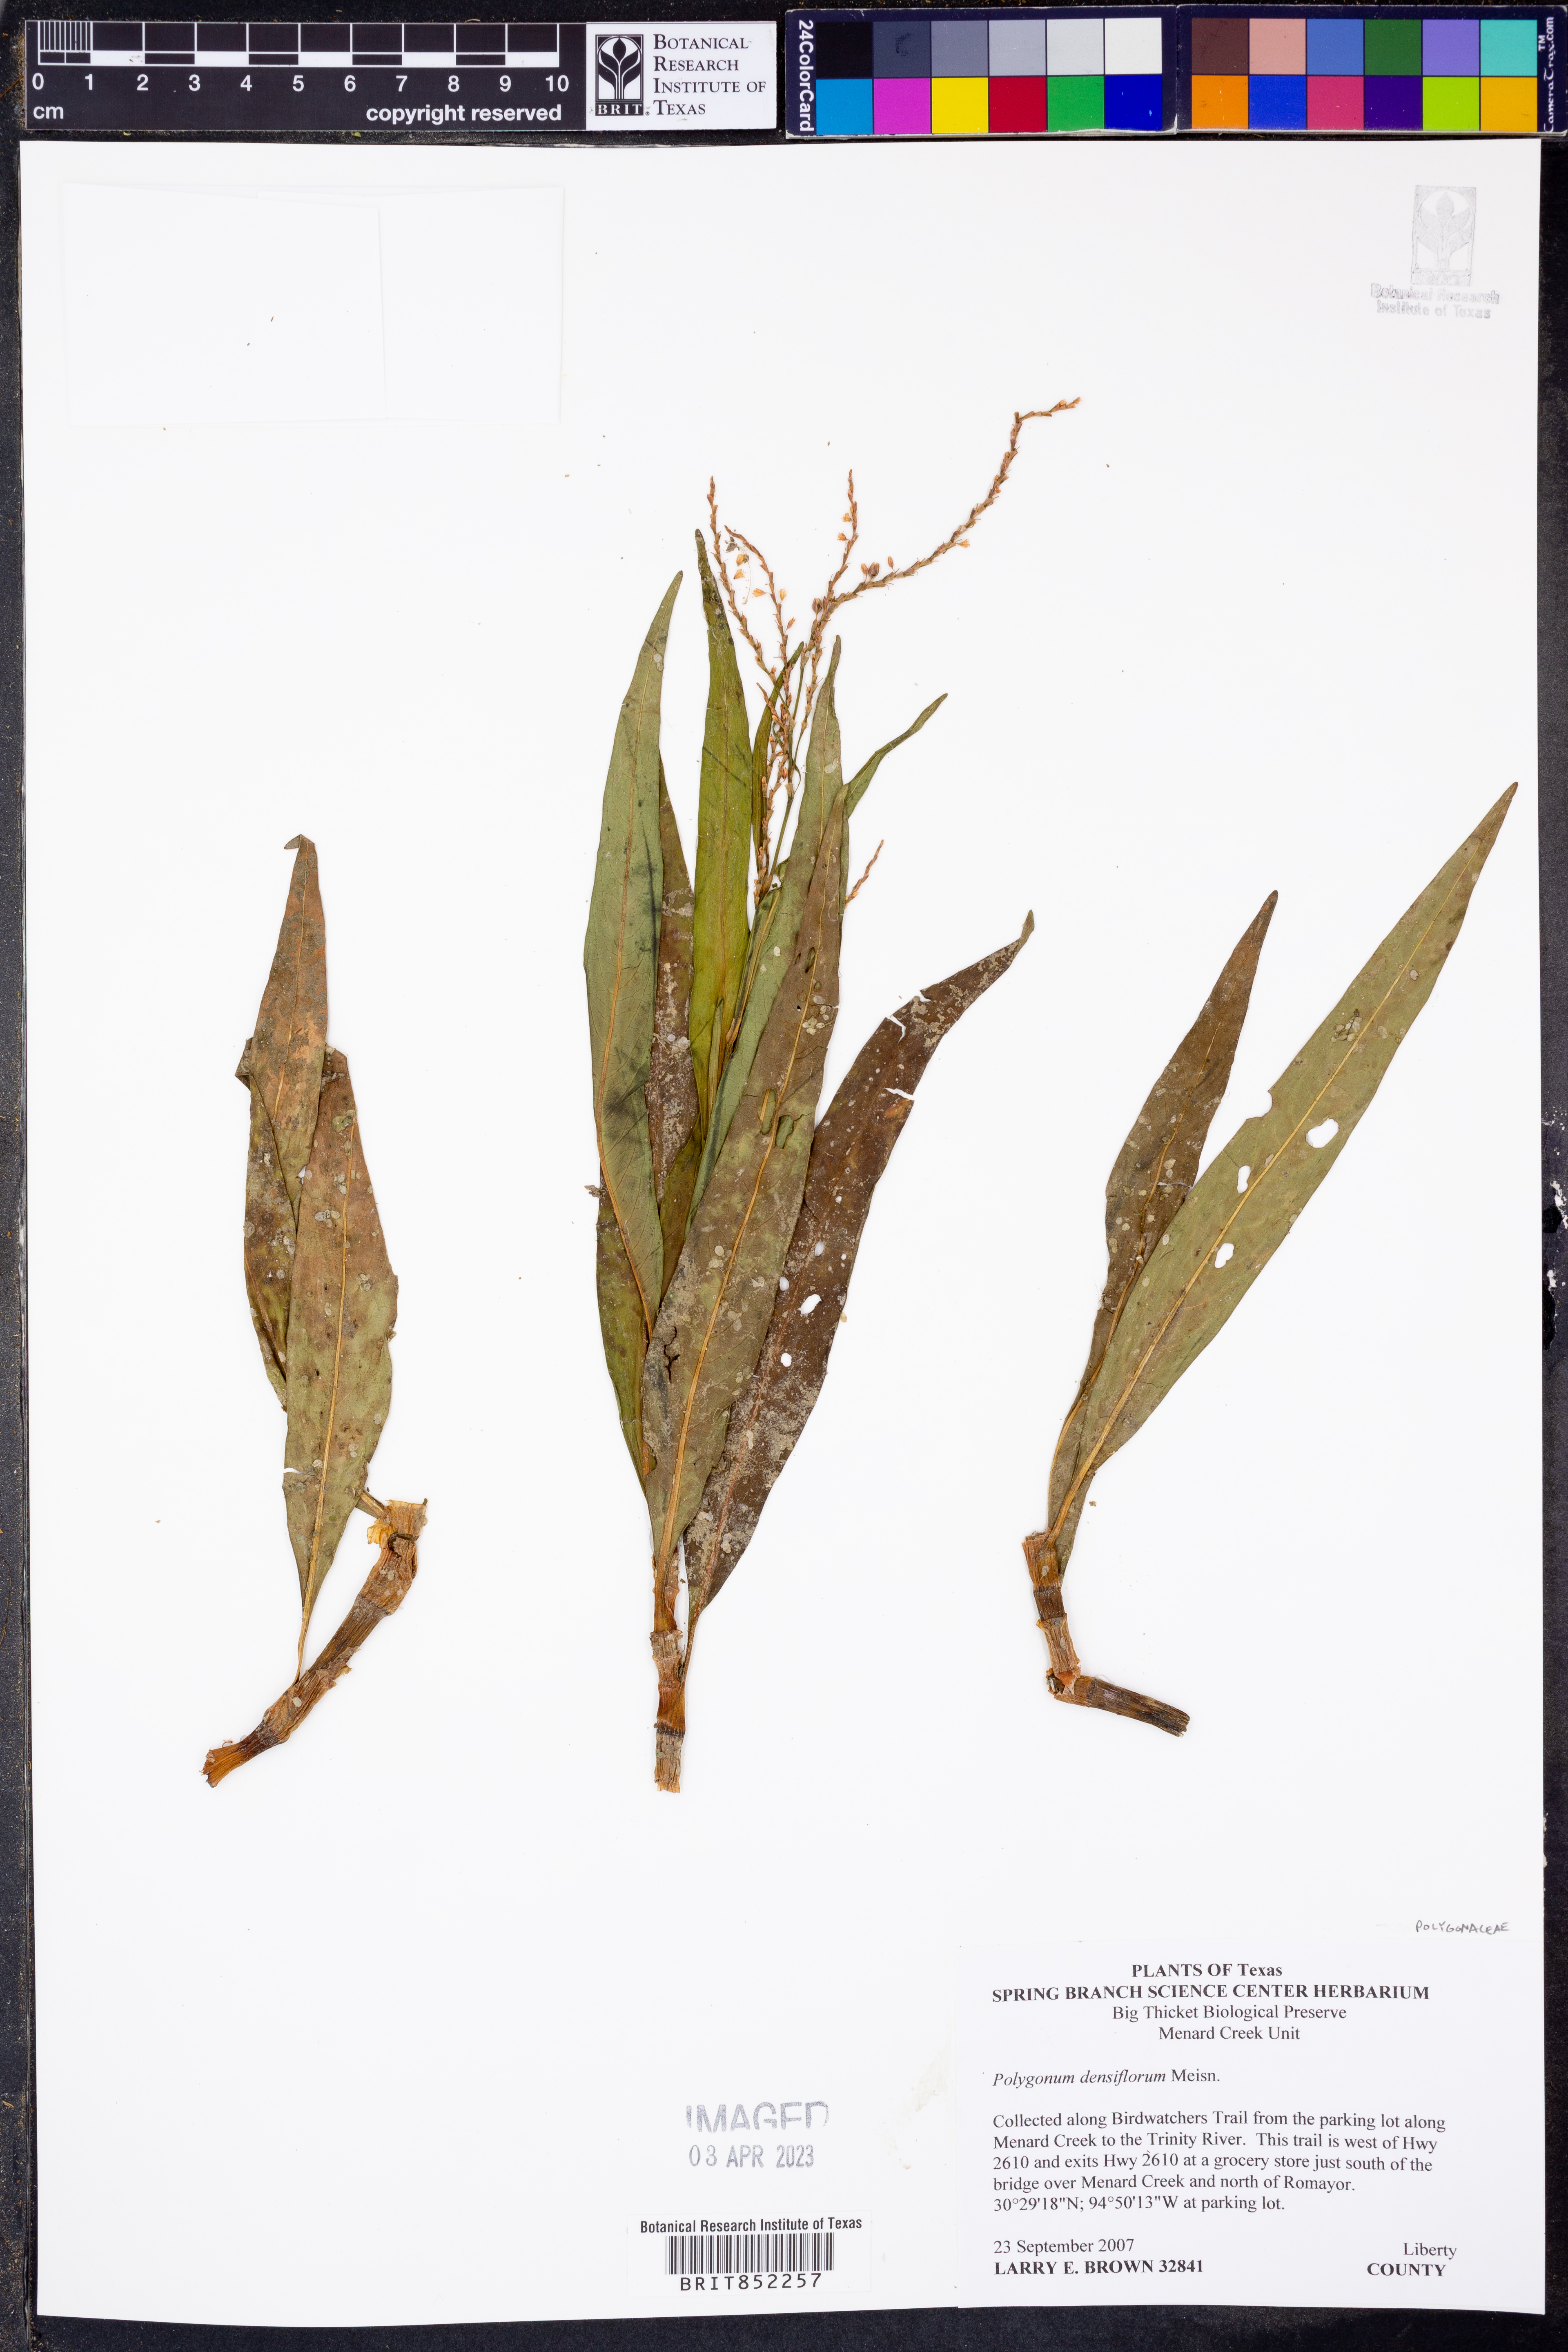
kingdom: Plantae
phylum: Tracheophyta
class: Magnoliopsida
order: Caryophyllales
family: Polygonaceae
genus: Persicaria
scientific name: Persicaria glabra
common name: Denseflower knotweed
